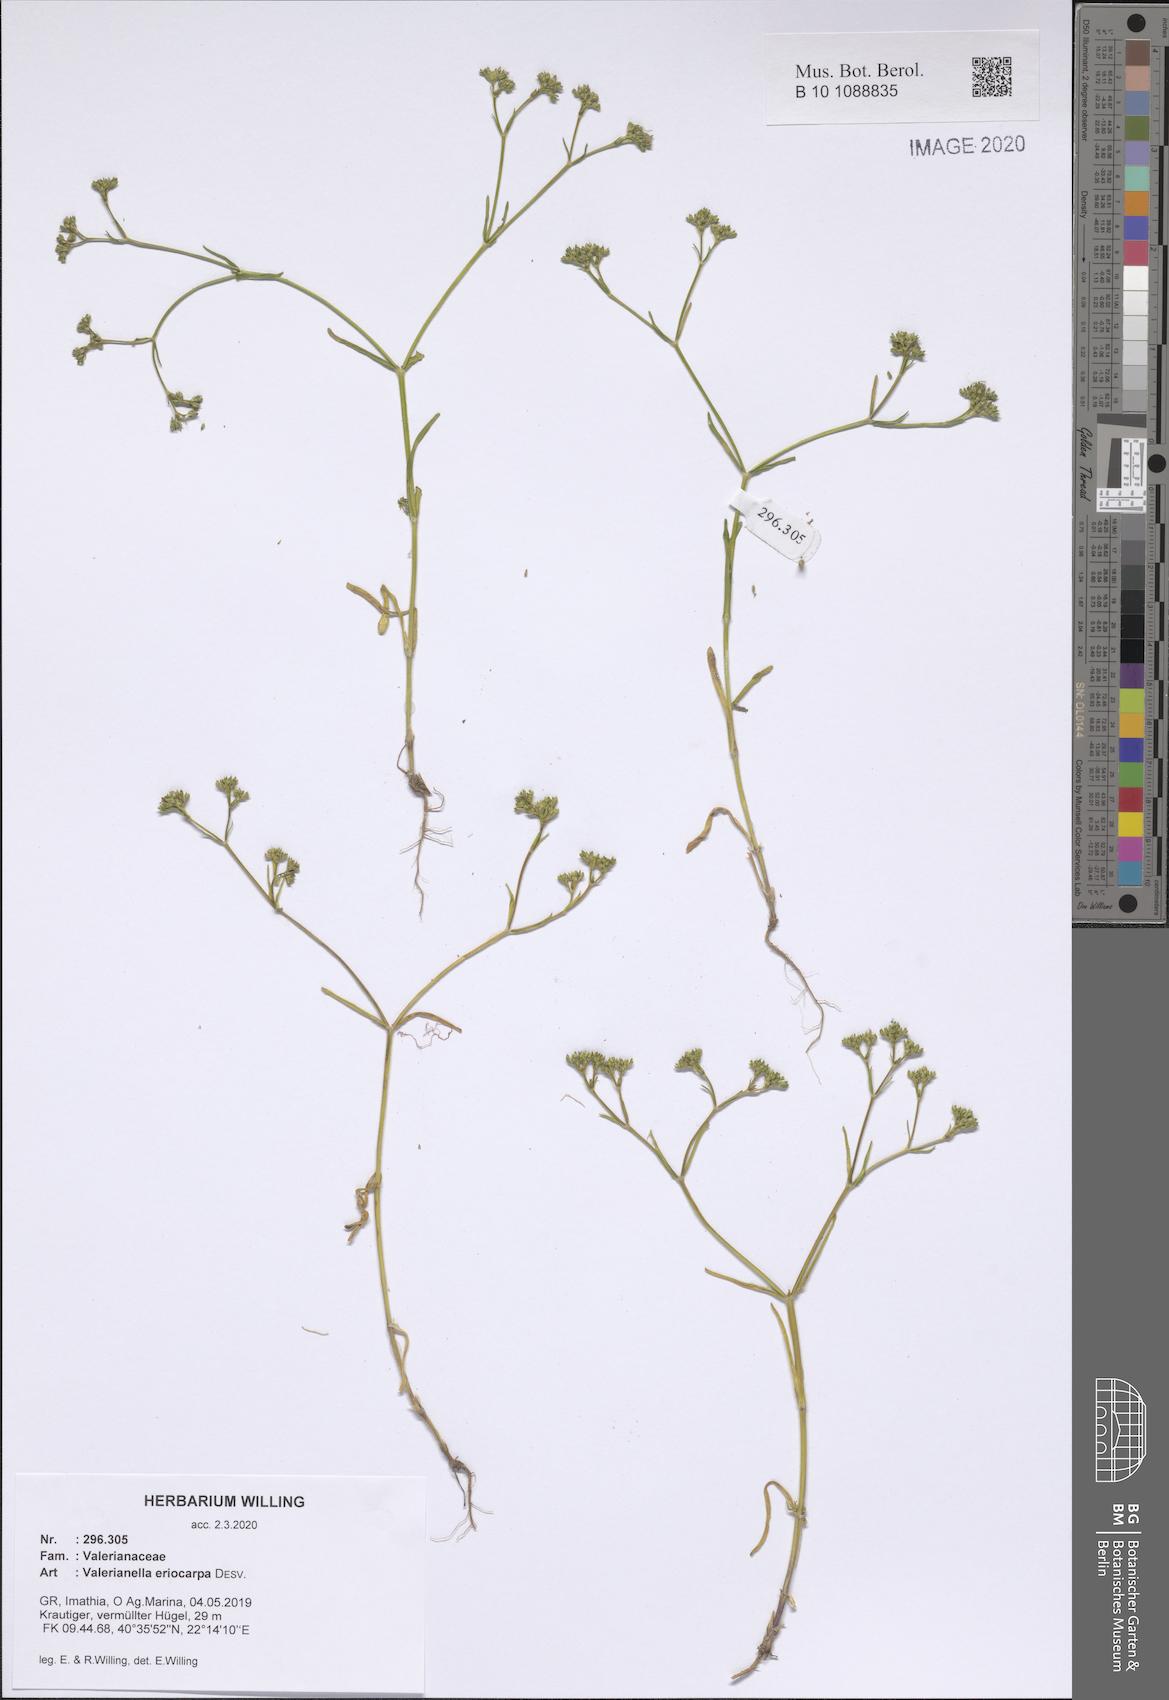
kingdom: Plantae
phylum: Tracheophyta
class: Magnoliopsida
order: Dipsacales
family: Caprifoliaceae
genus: Valerianella
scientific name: Valerianella eriocarpa
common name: Hairy-fruited cornsalad
